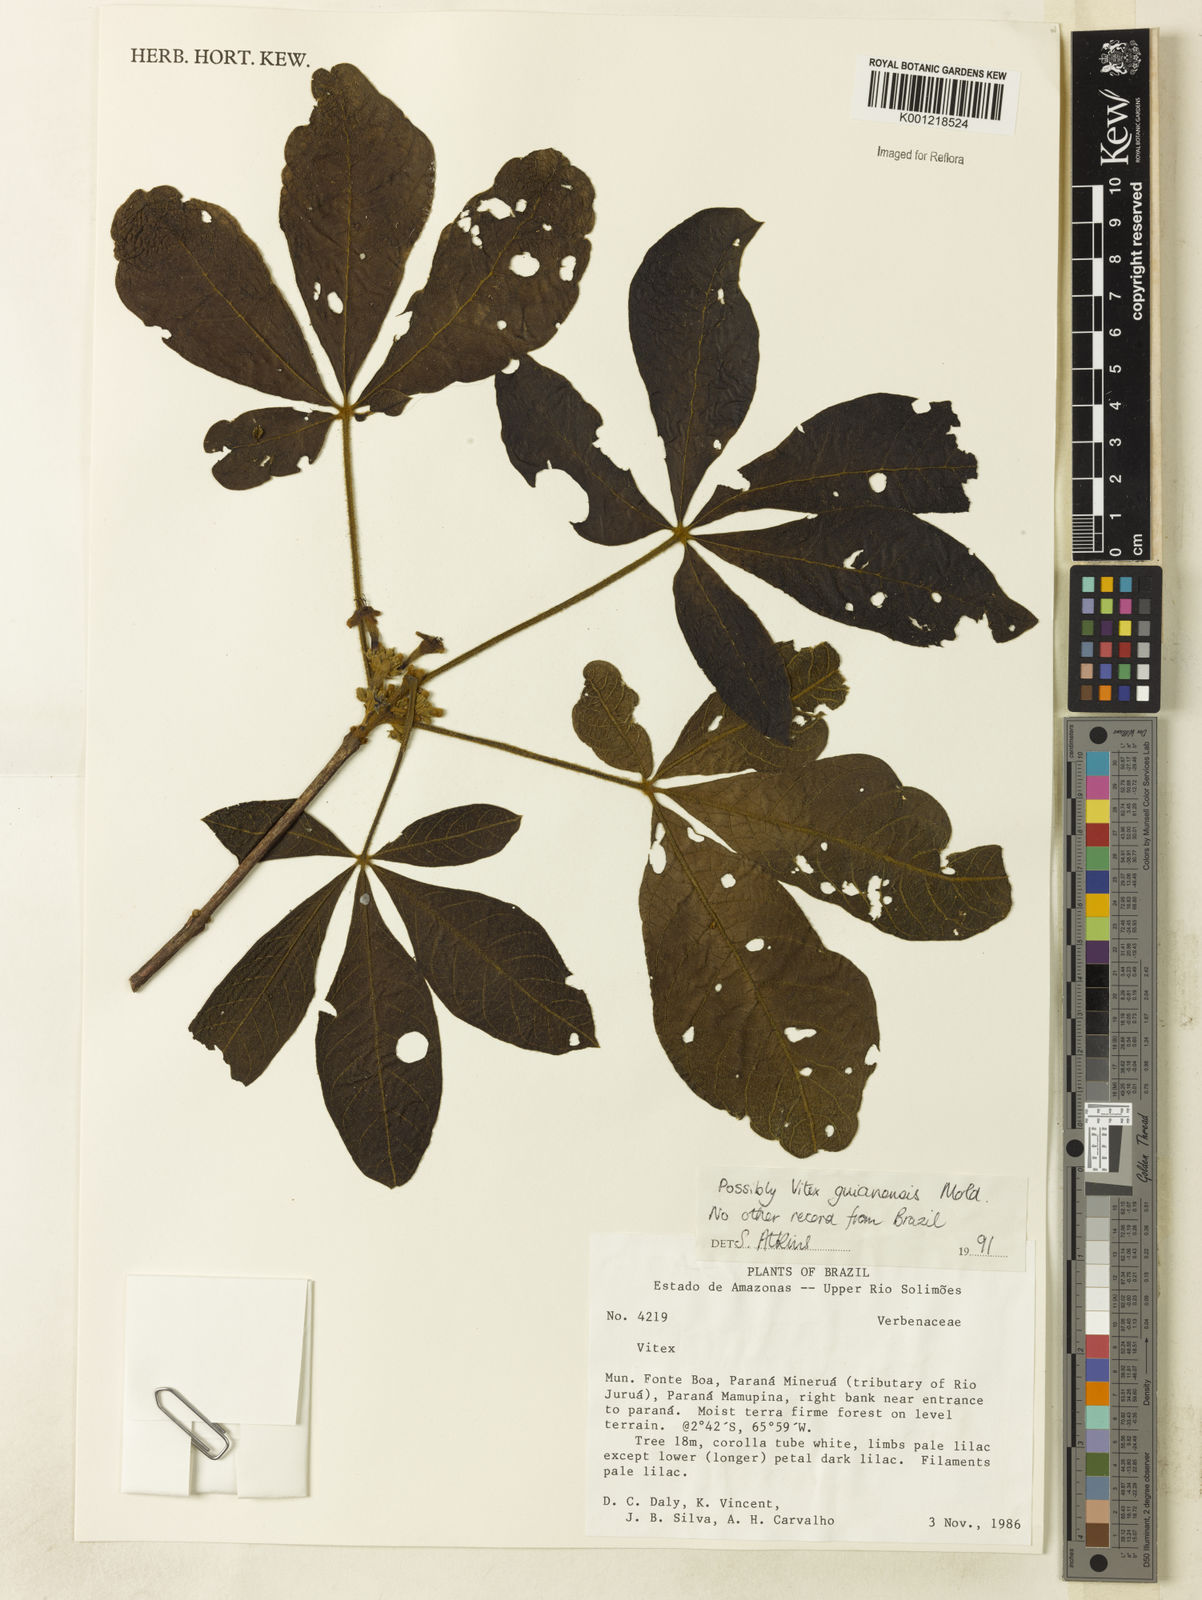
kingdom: Plantae
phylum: Tracheophyta
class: Magnoliopsida
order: Lamiales
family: Lamiaceae
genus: Vitex
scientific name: Vitex guianensis
